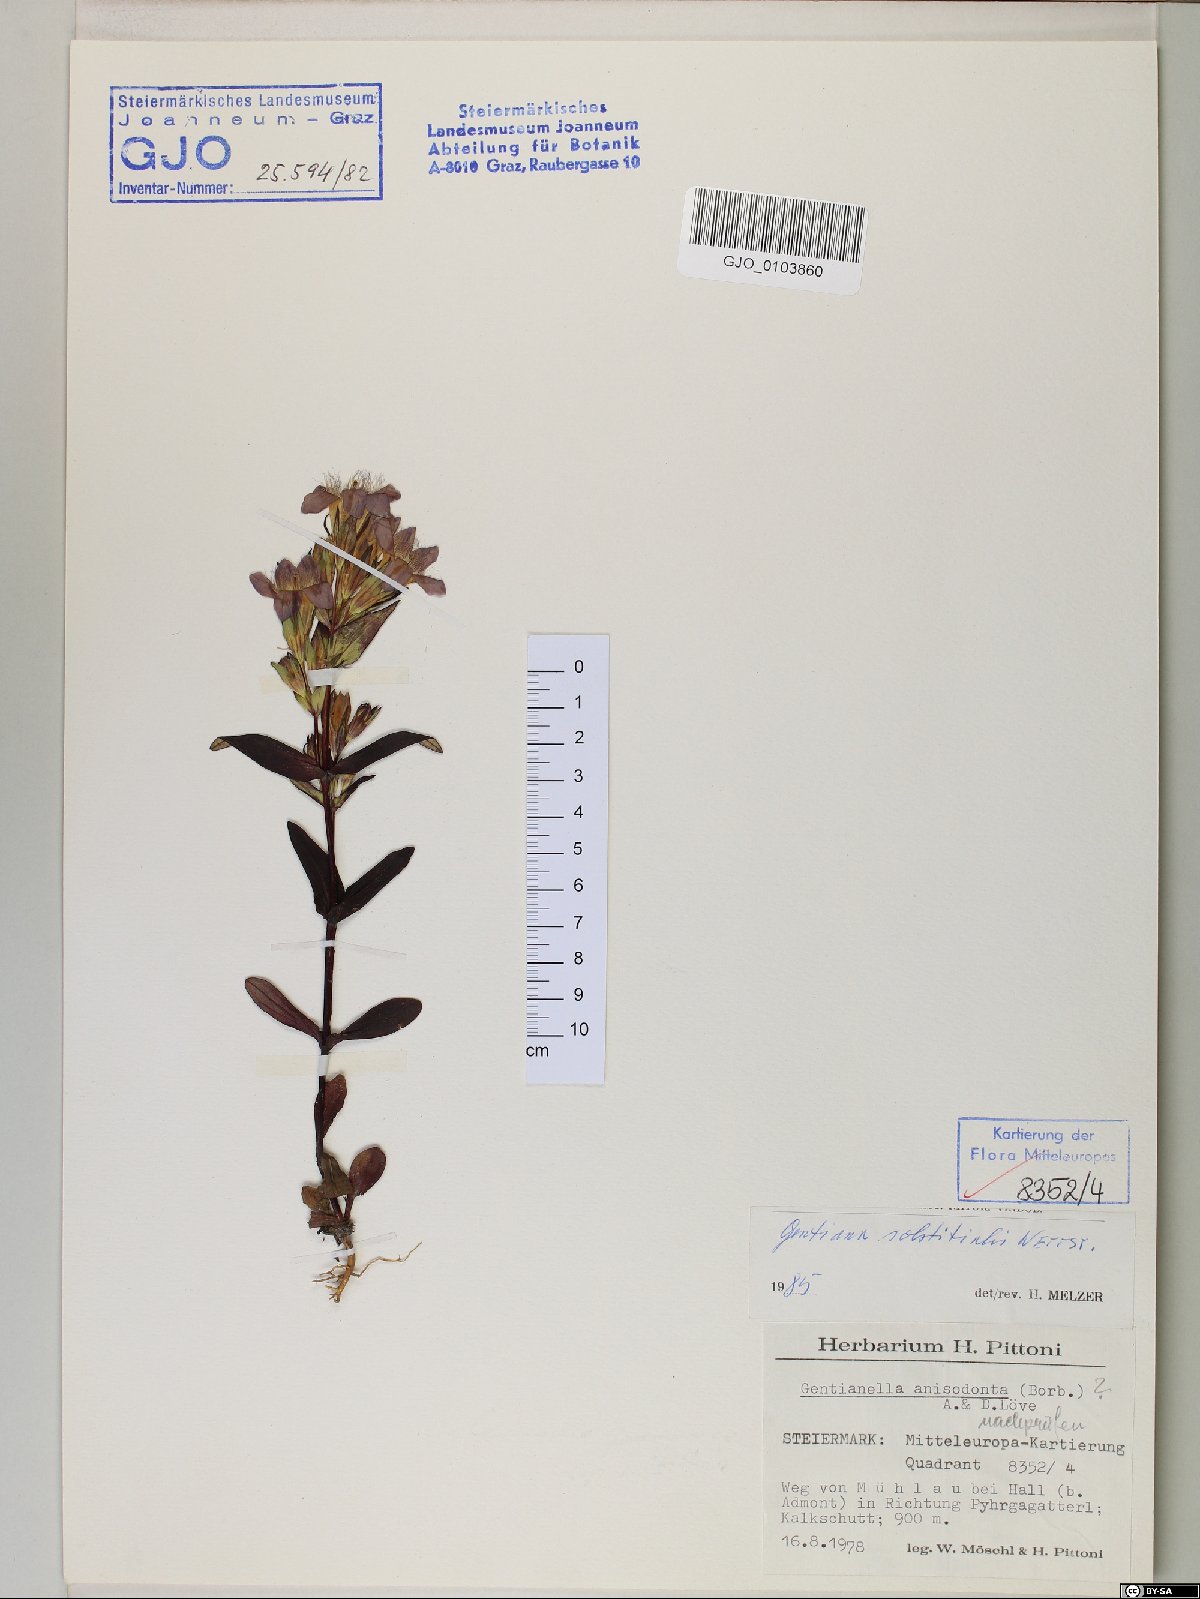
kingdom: Plantae
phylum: Tracheophyta
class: Magnoliopsida
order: Gentianales
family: Gentianaceae
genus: Gentianella
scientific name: Gentianella germanica
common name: Chiltern-gentian
